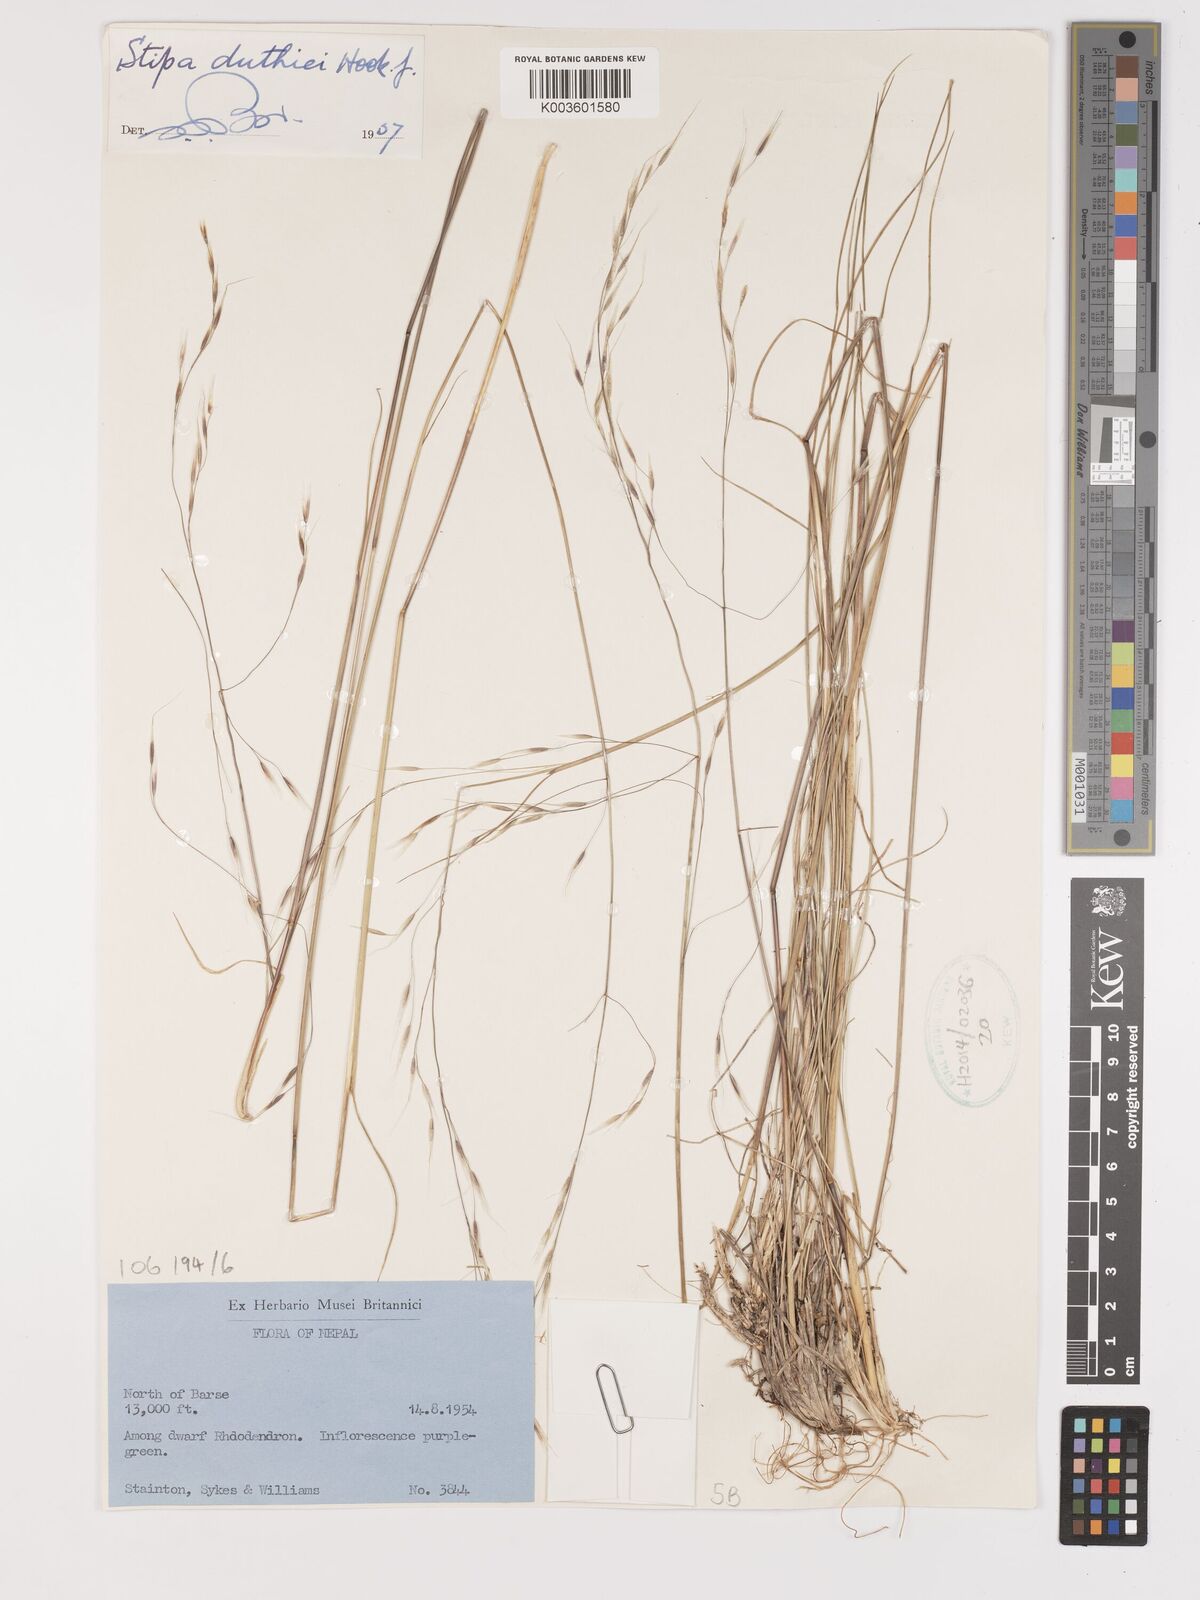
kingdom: Plantae
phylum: Tracheophyta
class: Liliopsida
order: Poales
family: Poaceae
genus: Ptilagrostis
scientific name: Ptilagrostis duthiei
